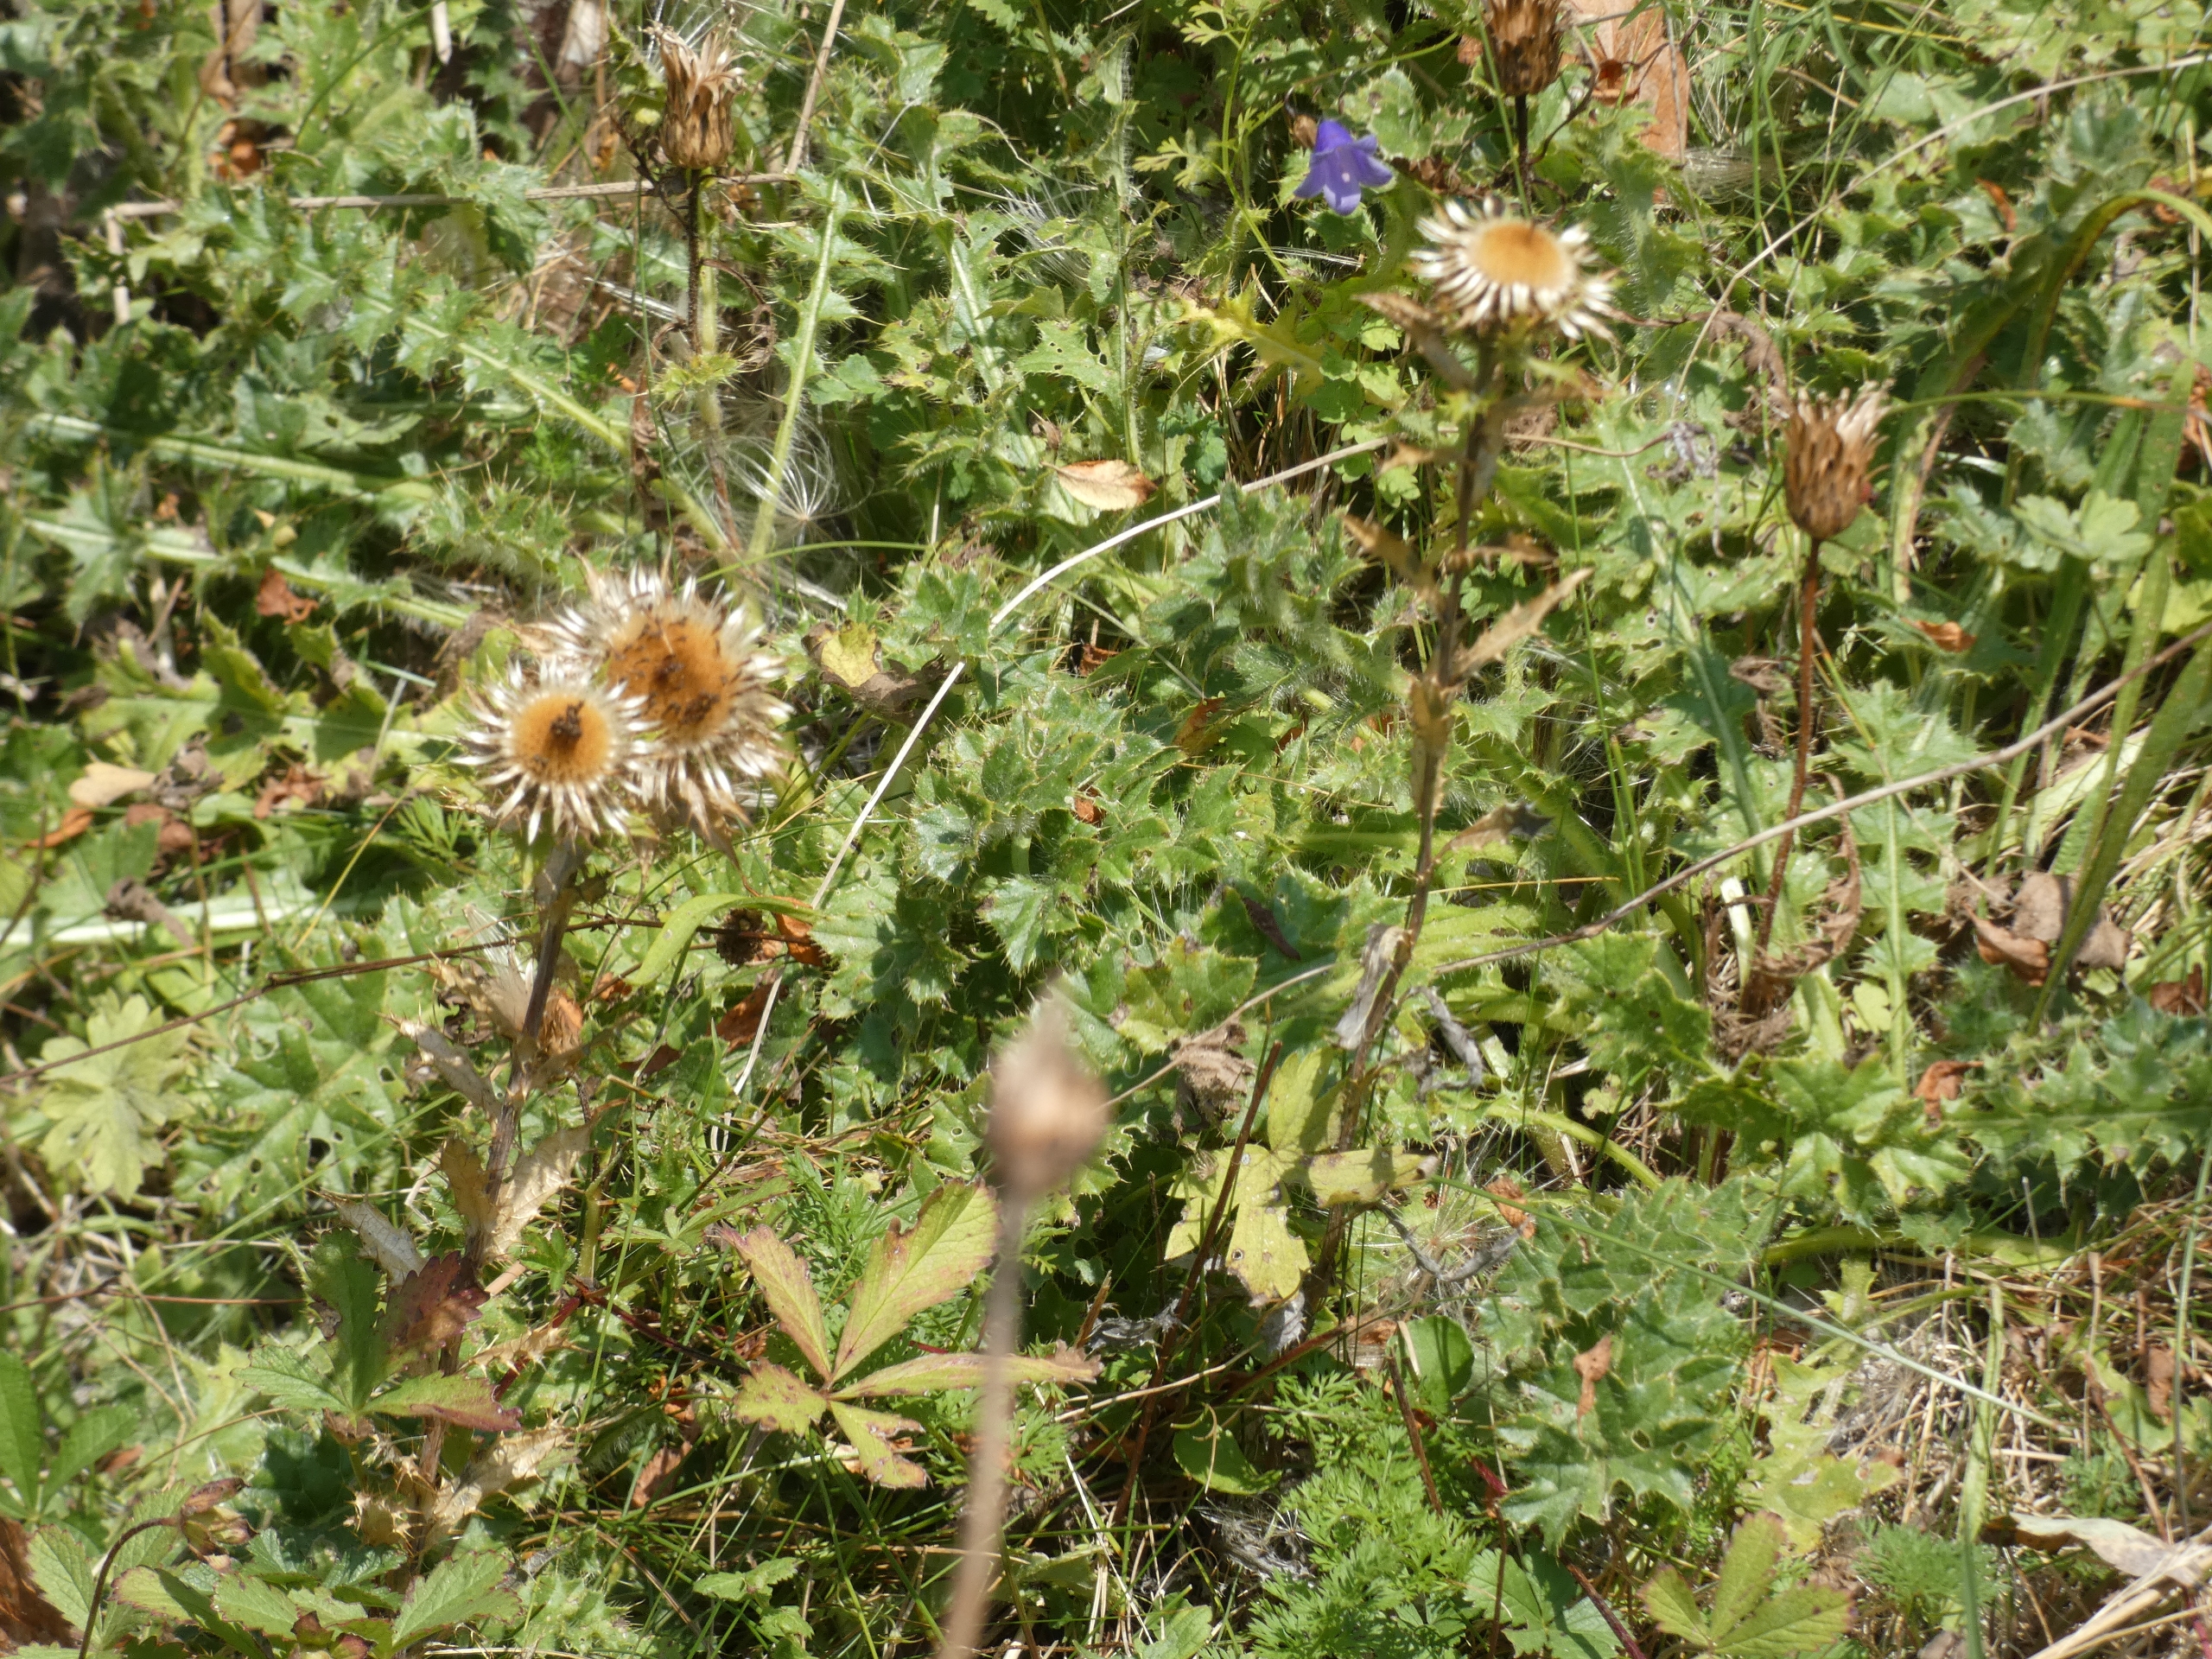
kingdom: Plantae
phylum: Tracheophyta
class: Magnoliopsida
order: Asterales
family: Asteraceae
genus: Cirsium
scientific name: Cirsium acaule
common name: Lav tidsel
